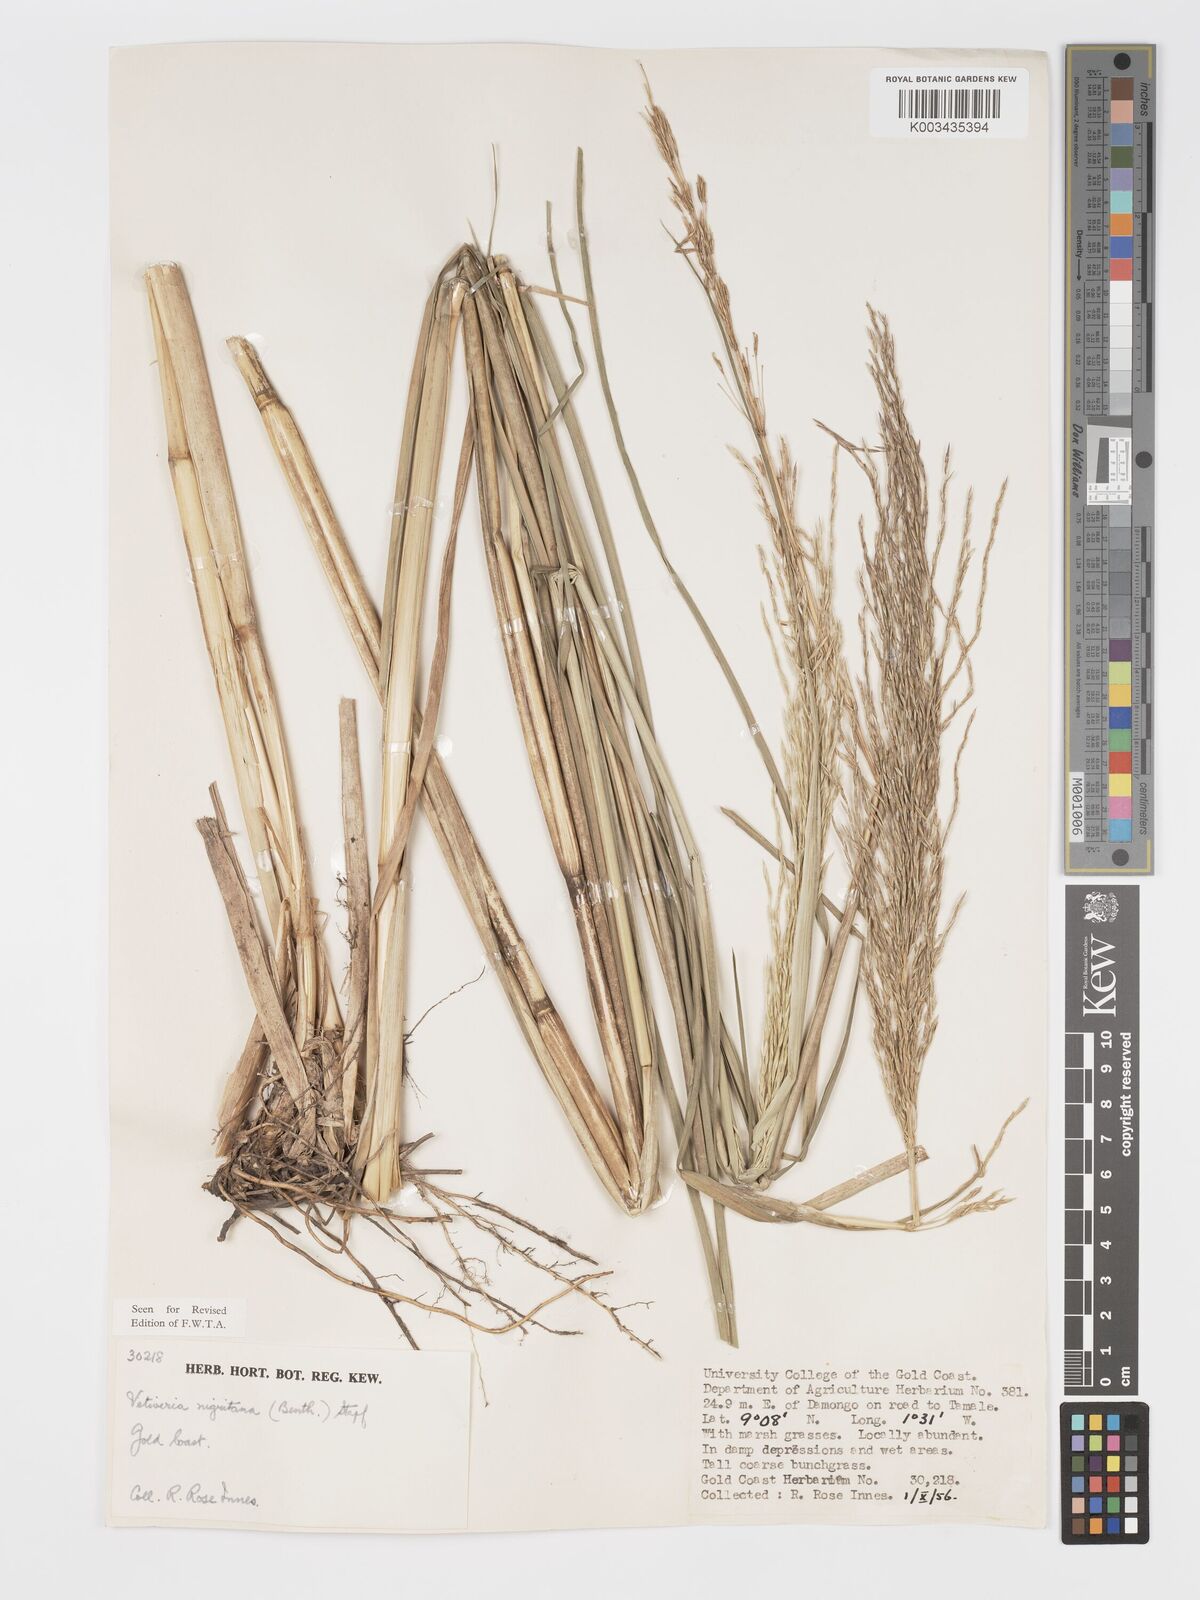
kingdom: Plantae
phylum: Tracheophyta
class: Liliopsida
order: Poales
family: Poaceae
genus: Chrysopogon
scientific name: Chrysopogon nigritanus
